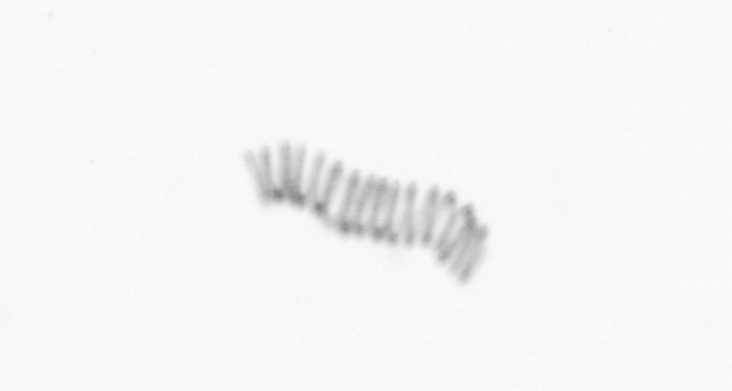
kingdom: Chromista
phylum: Ochrophyta
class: Bacillariophyceae
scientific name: Bacillariophyceae
